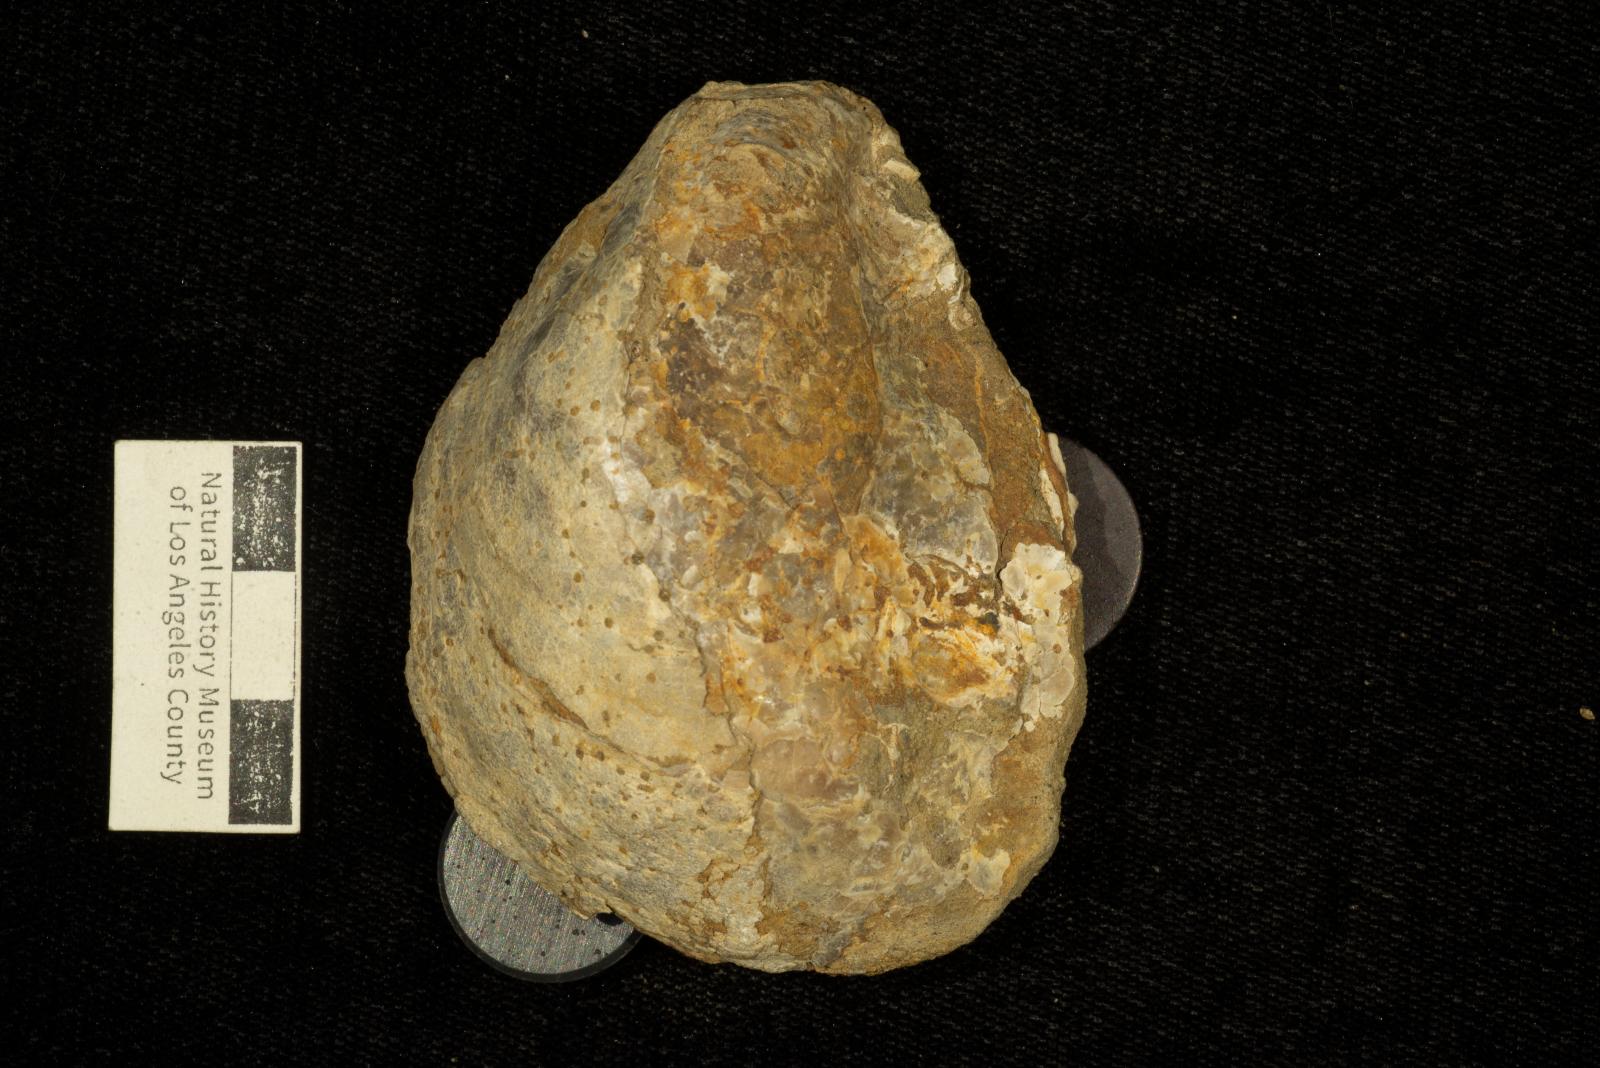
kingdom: Animalia
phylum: Mollusca
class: Bivalvia
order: Ostreida
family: Gryphaeidae
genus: Costagyra
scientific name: Costagyra
